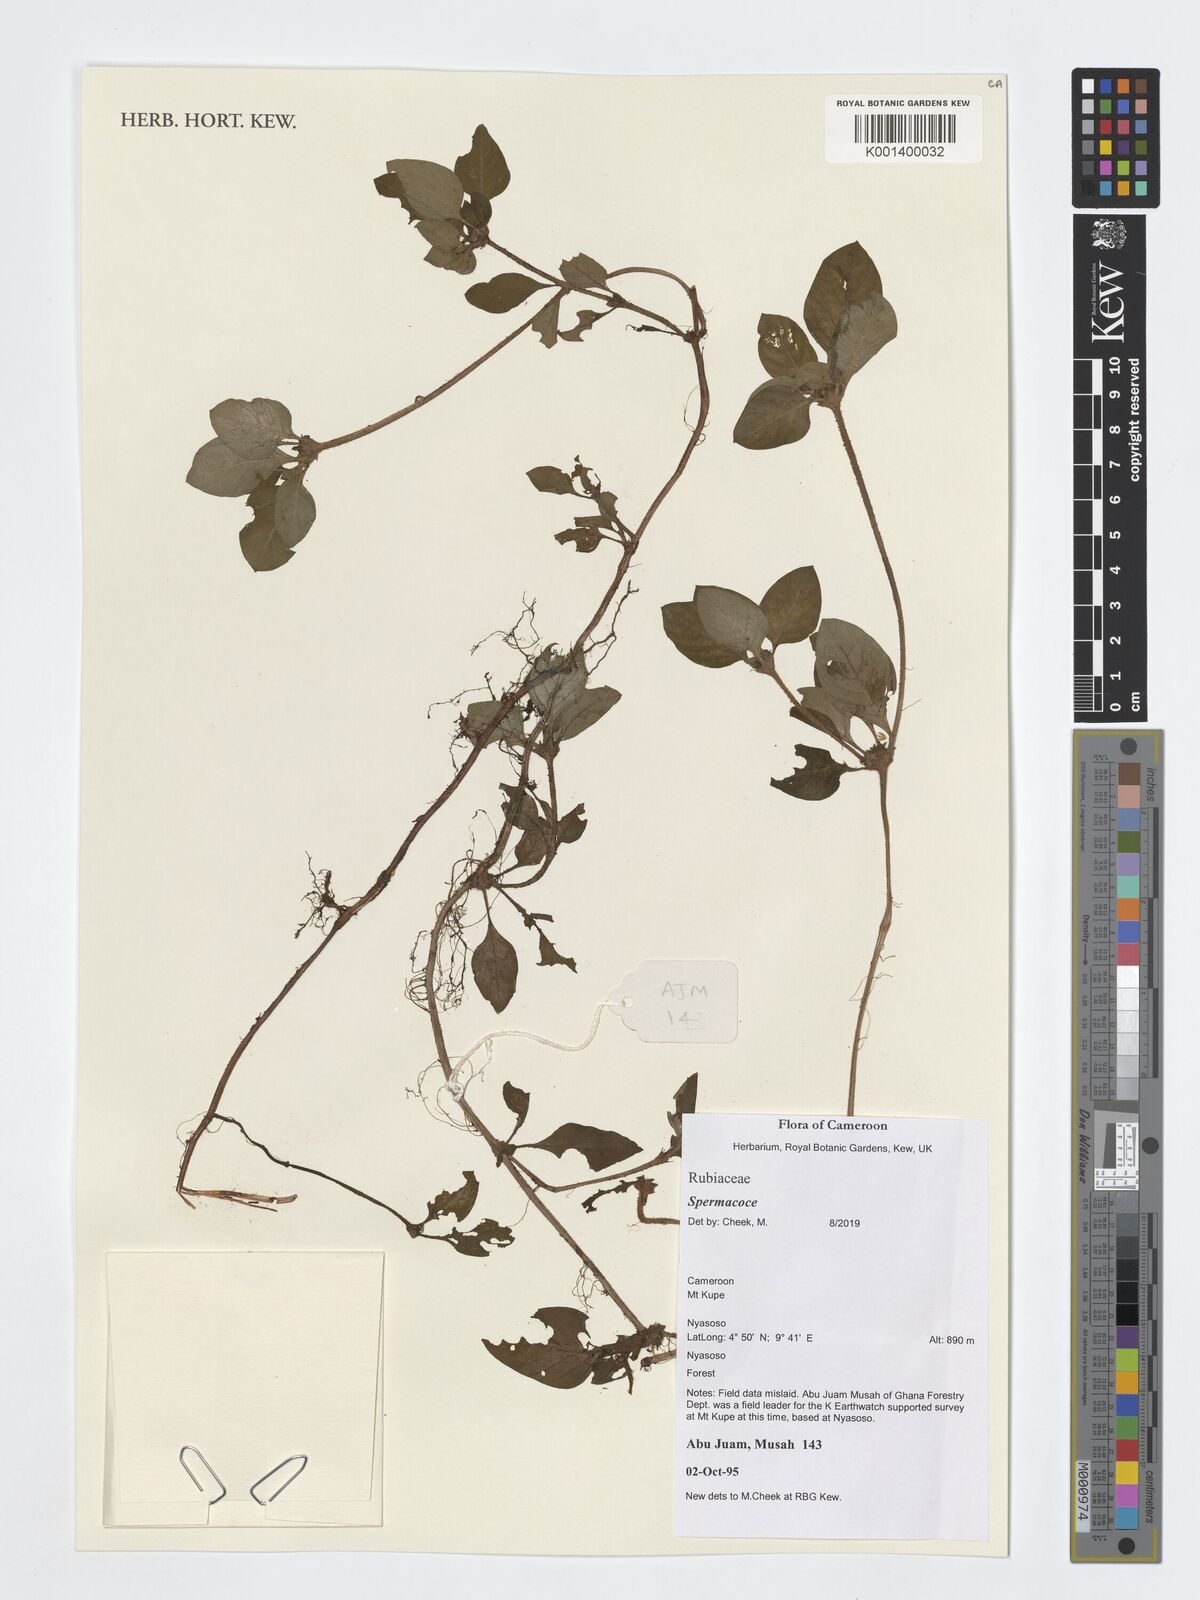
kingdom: Plantae
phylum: Tracheophyta
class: Magnoliopsida
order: Gentianales
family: Rubiaceae
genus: Spermacoce
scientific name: Spermacoce
